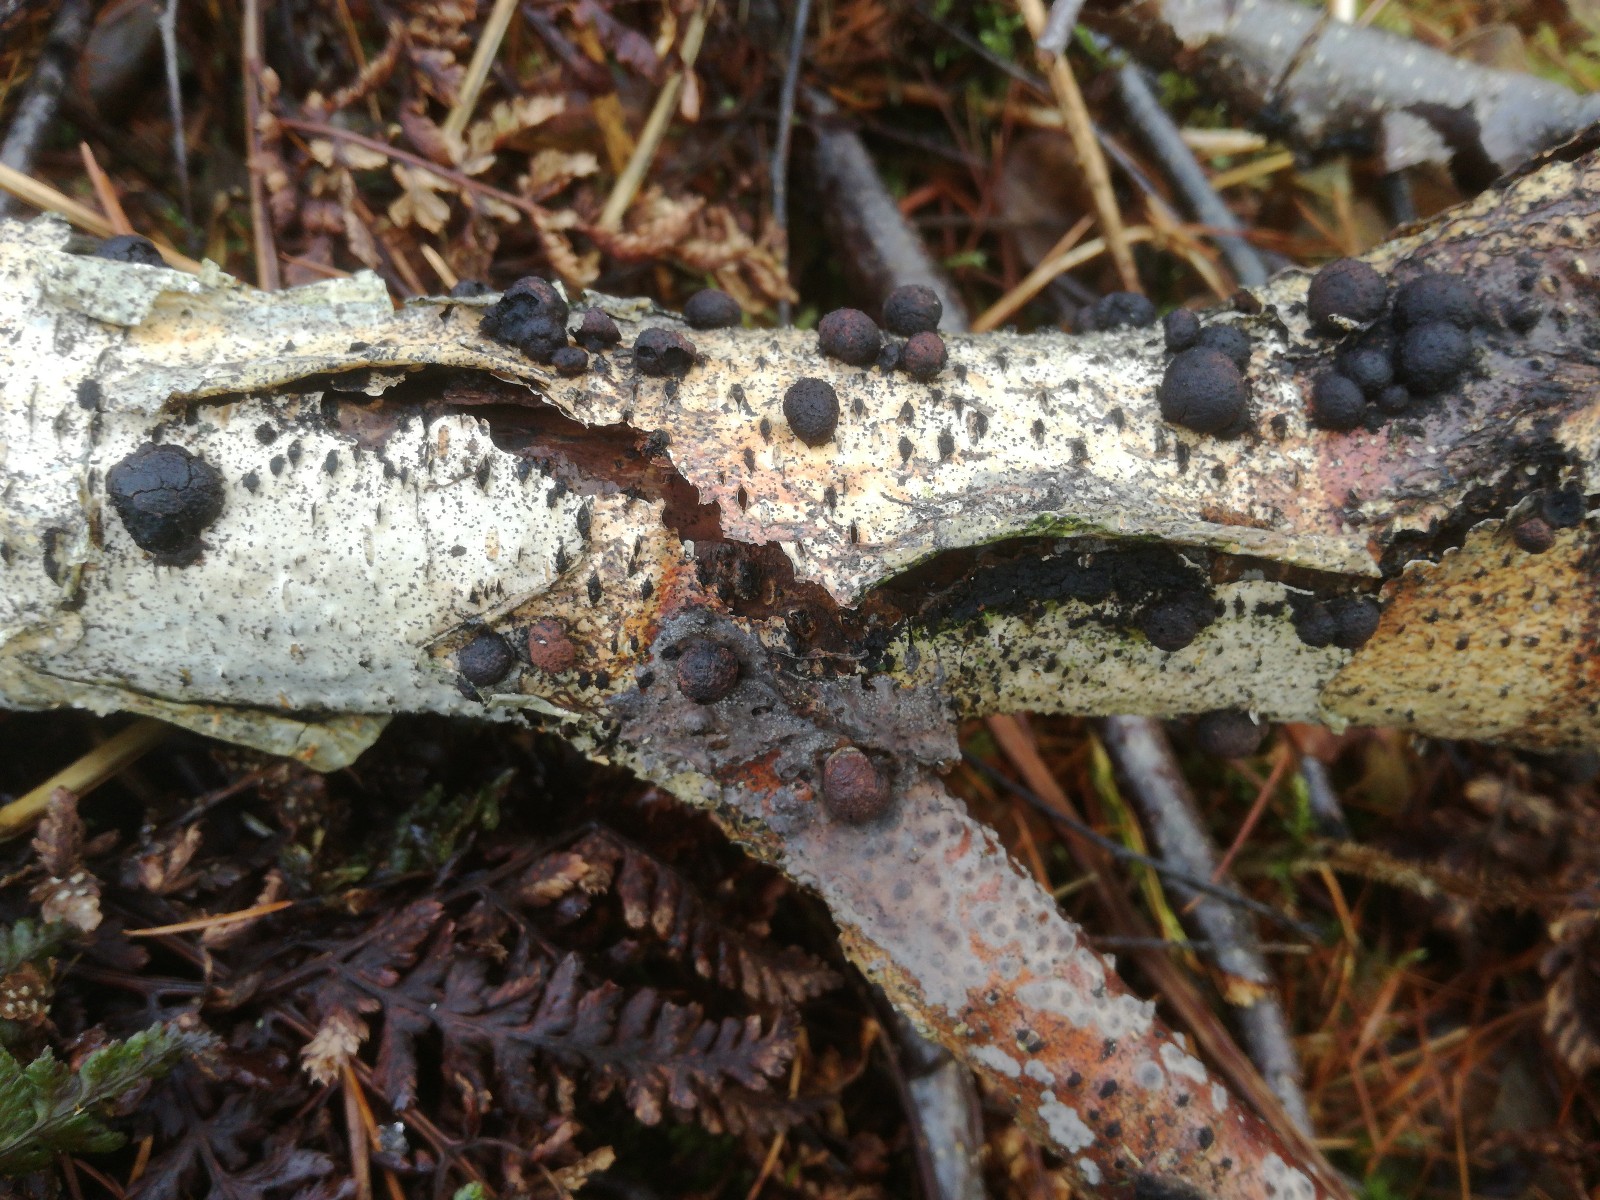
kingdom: Fungi
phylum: Ascomycota
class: Sordariomycetes
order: Xylariales
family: Hypoxylaceae
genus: Hypoxylon
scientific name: Hypoxylon
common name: kulbær
